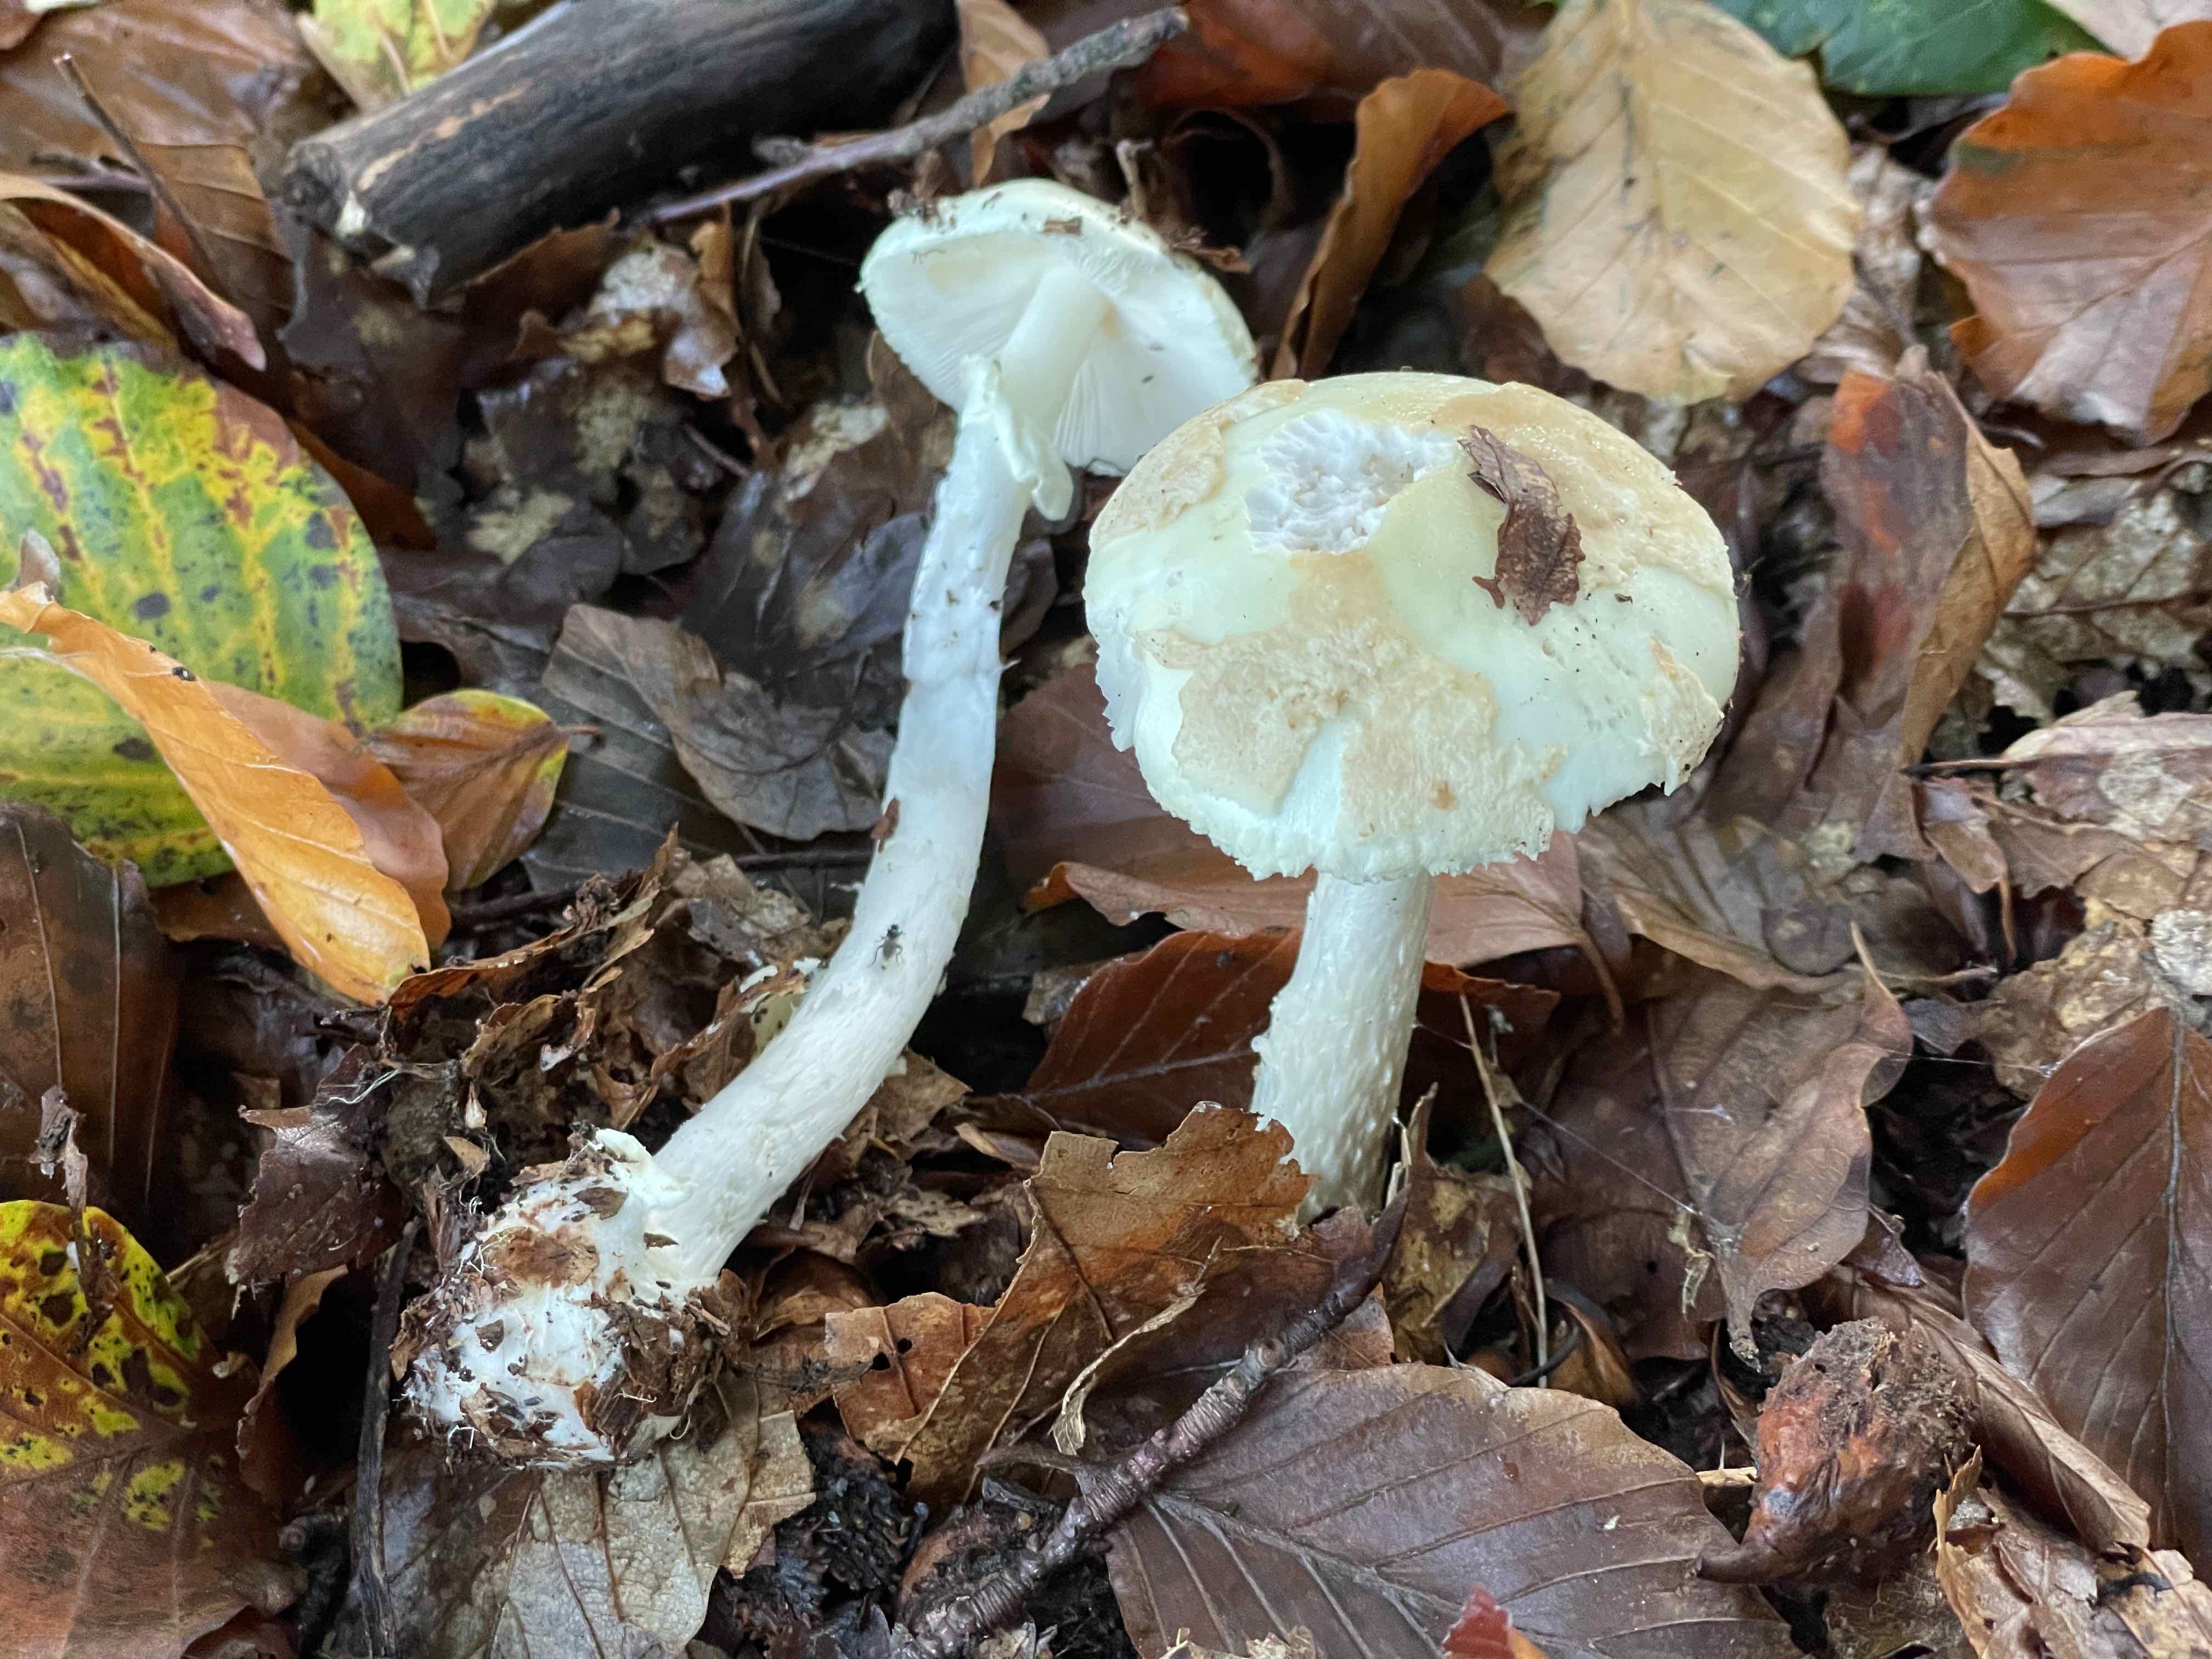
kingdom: Fungi
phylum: Basidiomycota
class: Agaricomycetes
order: Agaricales
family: Amanitaceae
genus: Amanita
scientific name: Amanita citrina
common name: kugleknoldet fluesvamp
